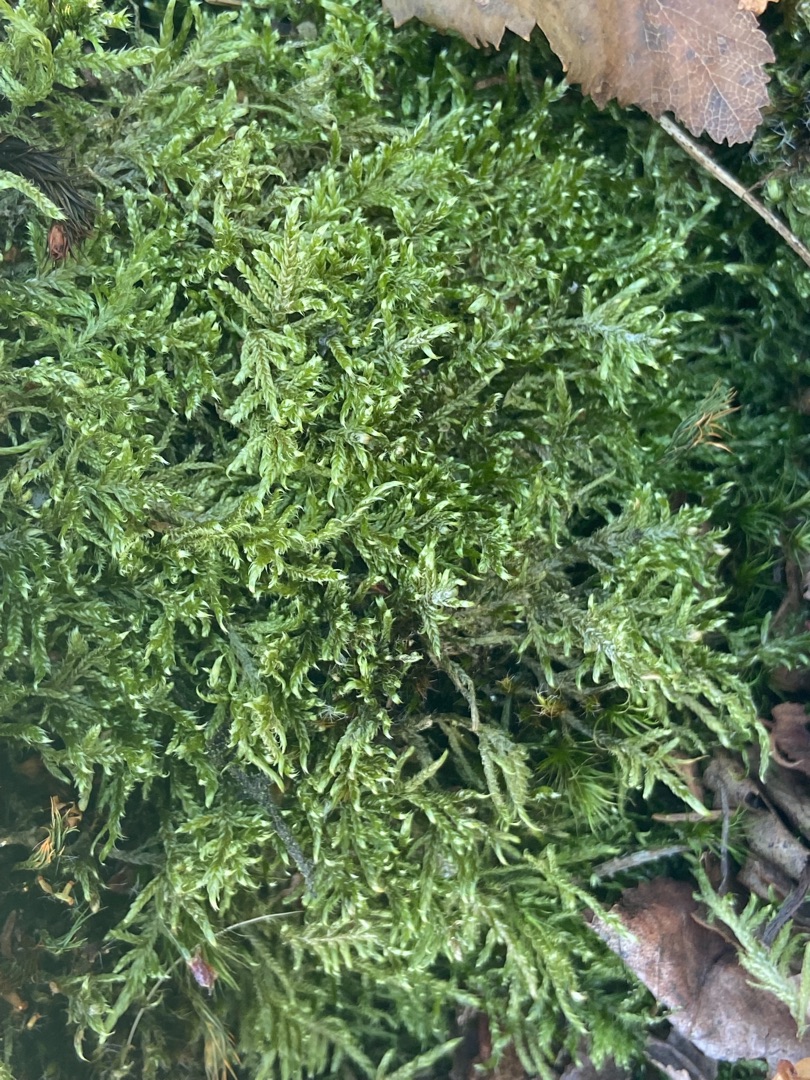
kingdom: Plantae
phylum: Bryophyta
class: Bryopsida
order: Hypnales
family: Hypnaceae
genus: Hypnum
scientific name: Hypnum jutlandicum
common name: Hede-cypresmos
